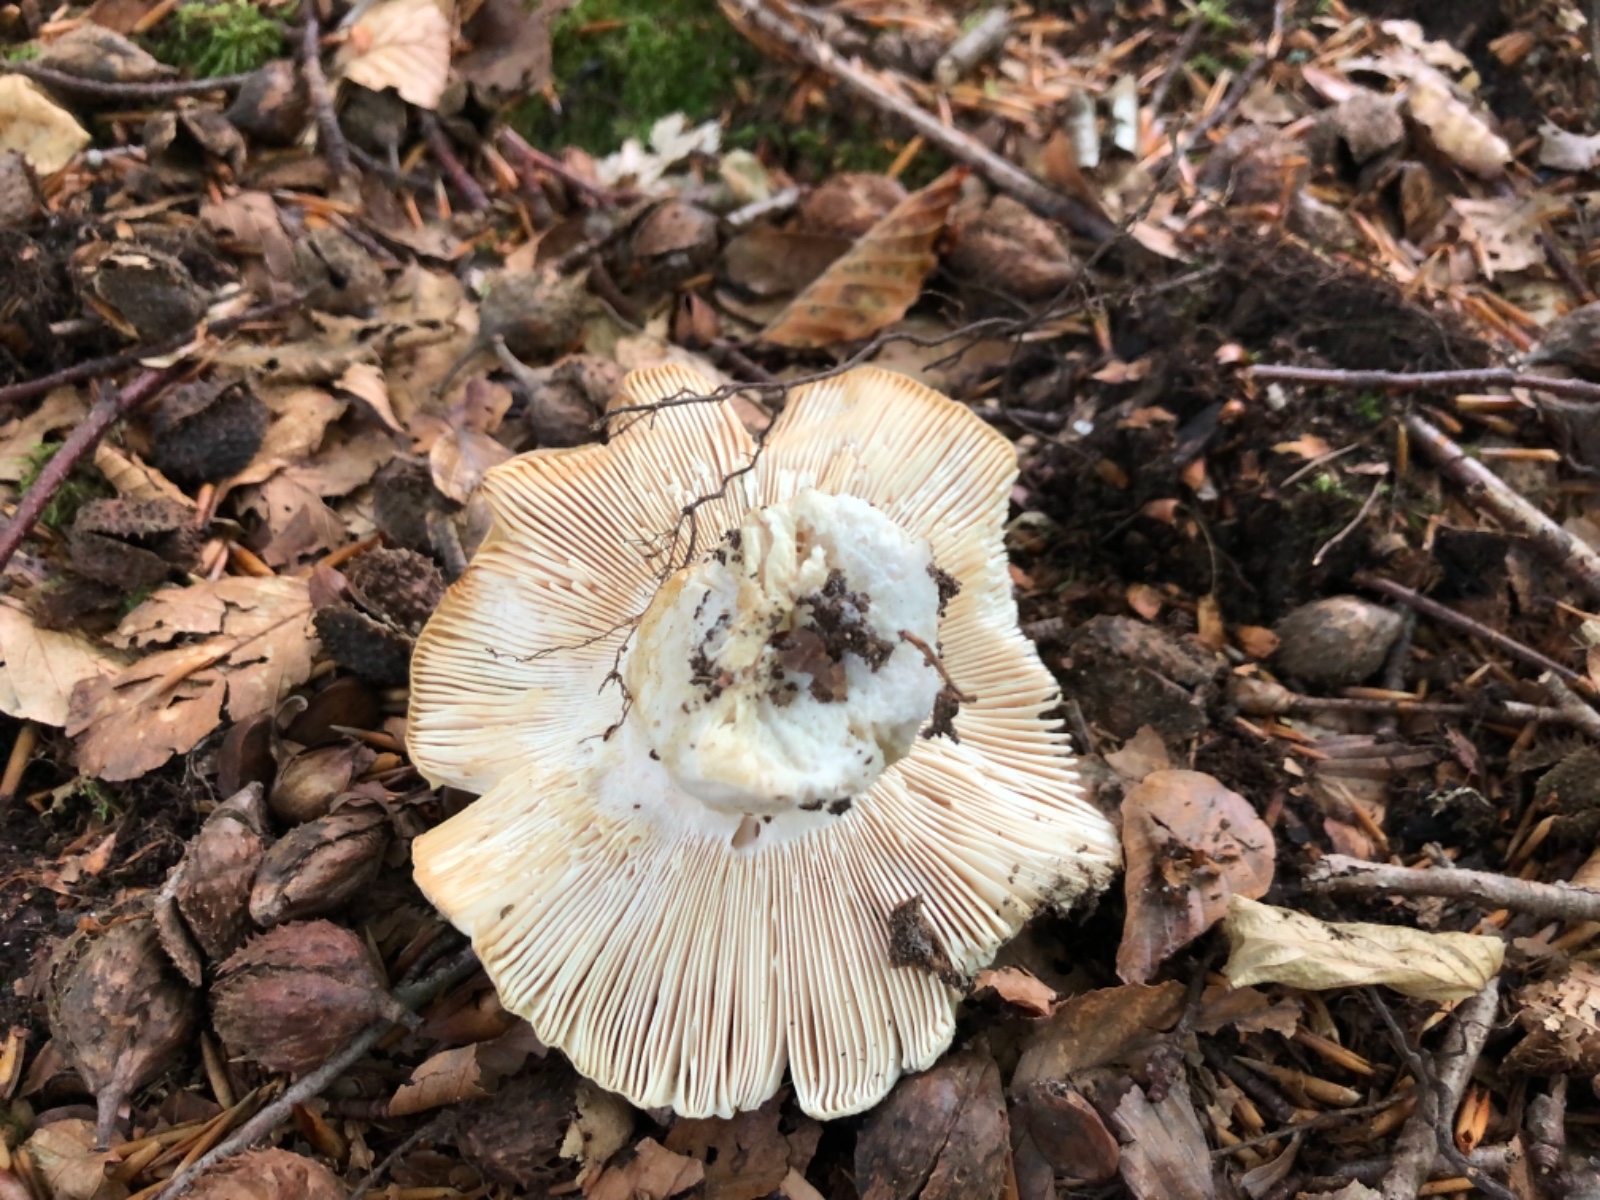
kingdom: Fungi
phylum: Basidiomycota
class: Agaricomycetes
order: Russulales
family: Russulaceae
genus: Russula
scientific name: Russula virescens
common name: spanskgrøn skørhat
